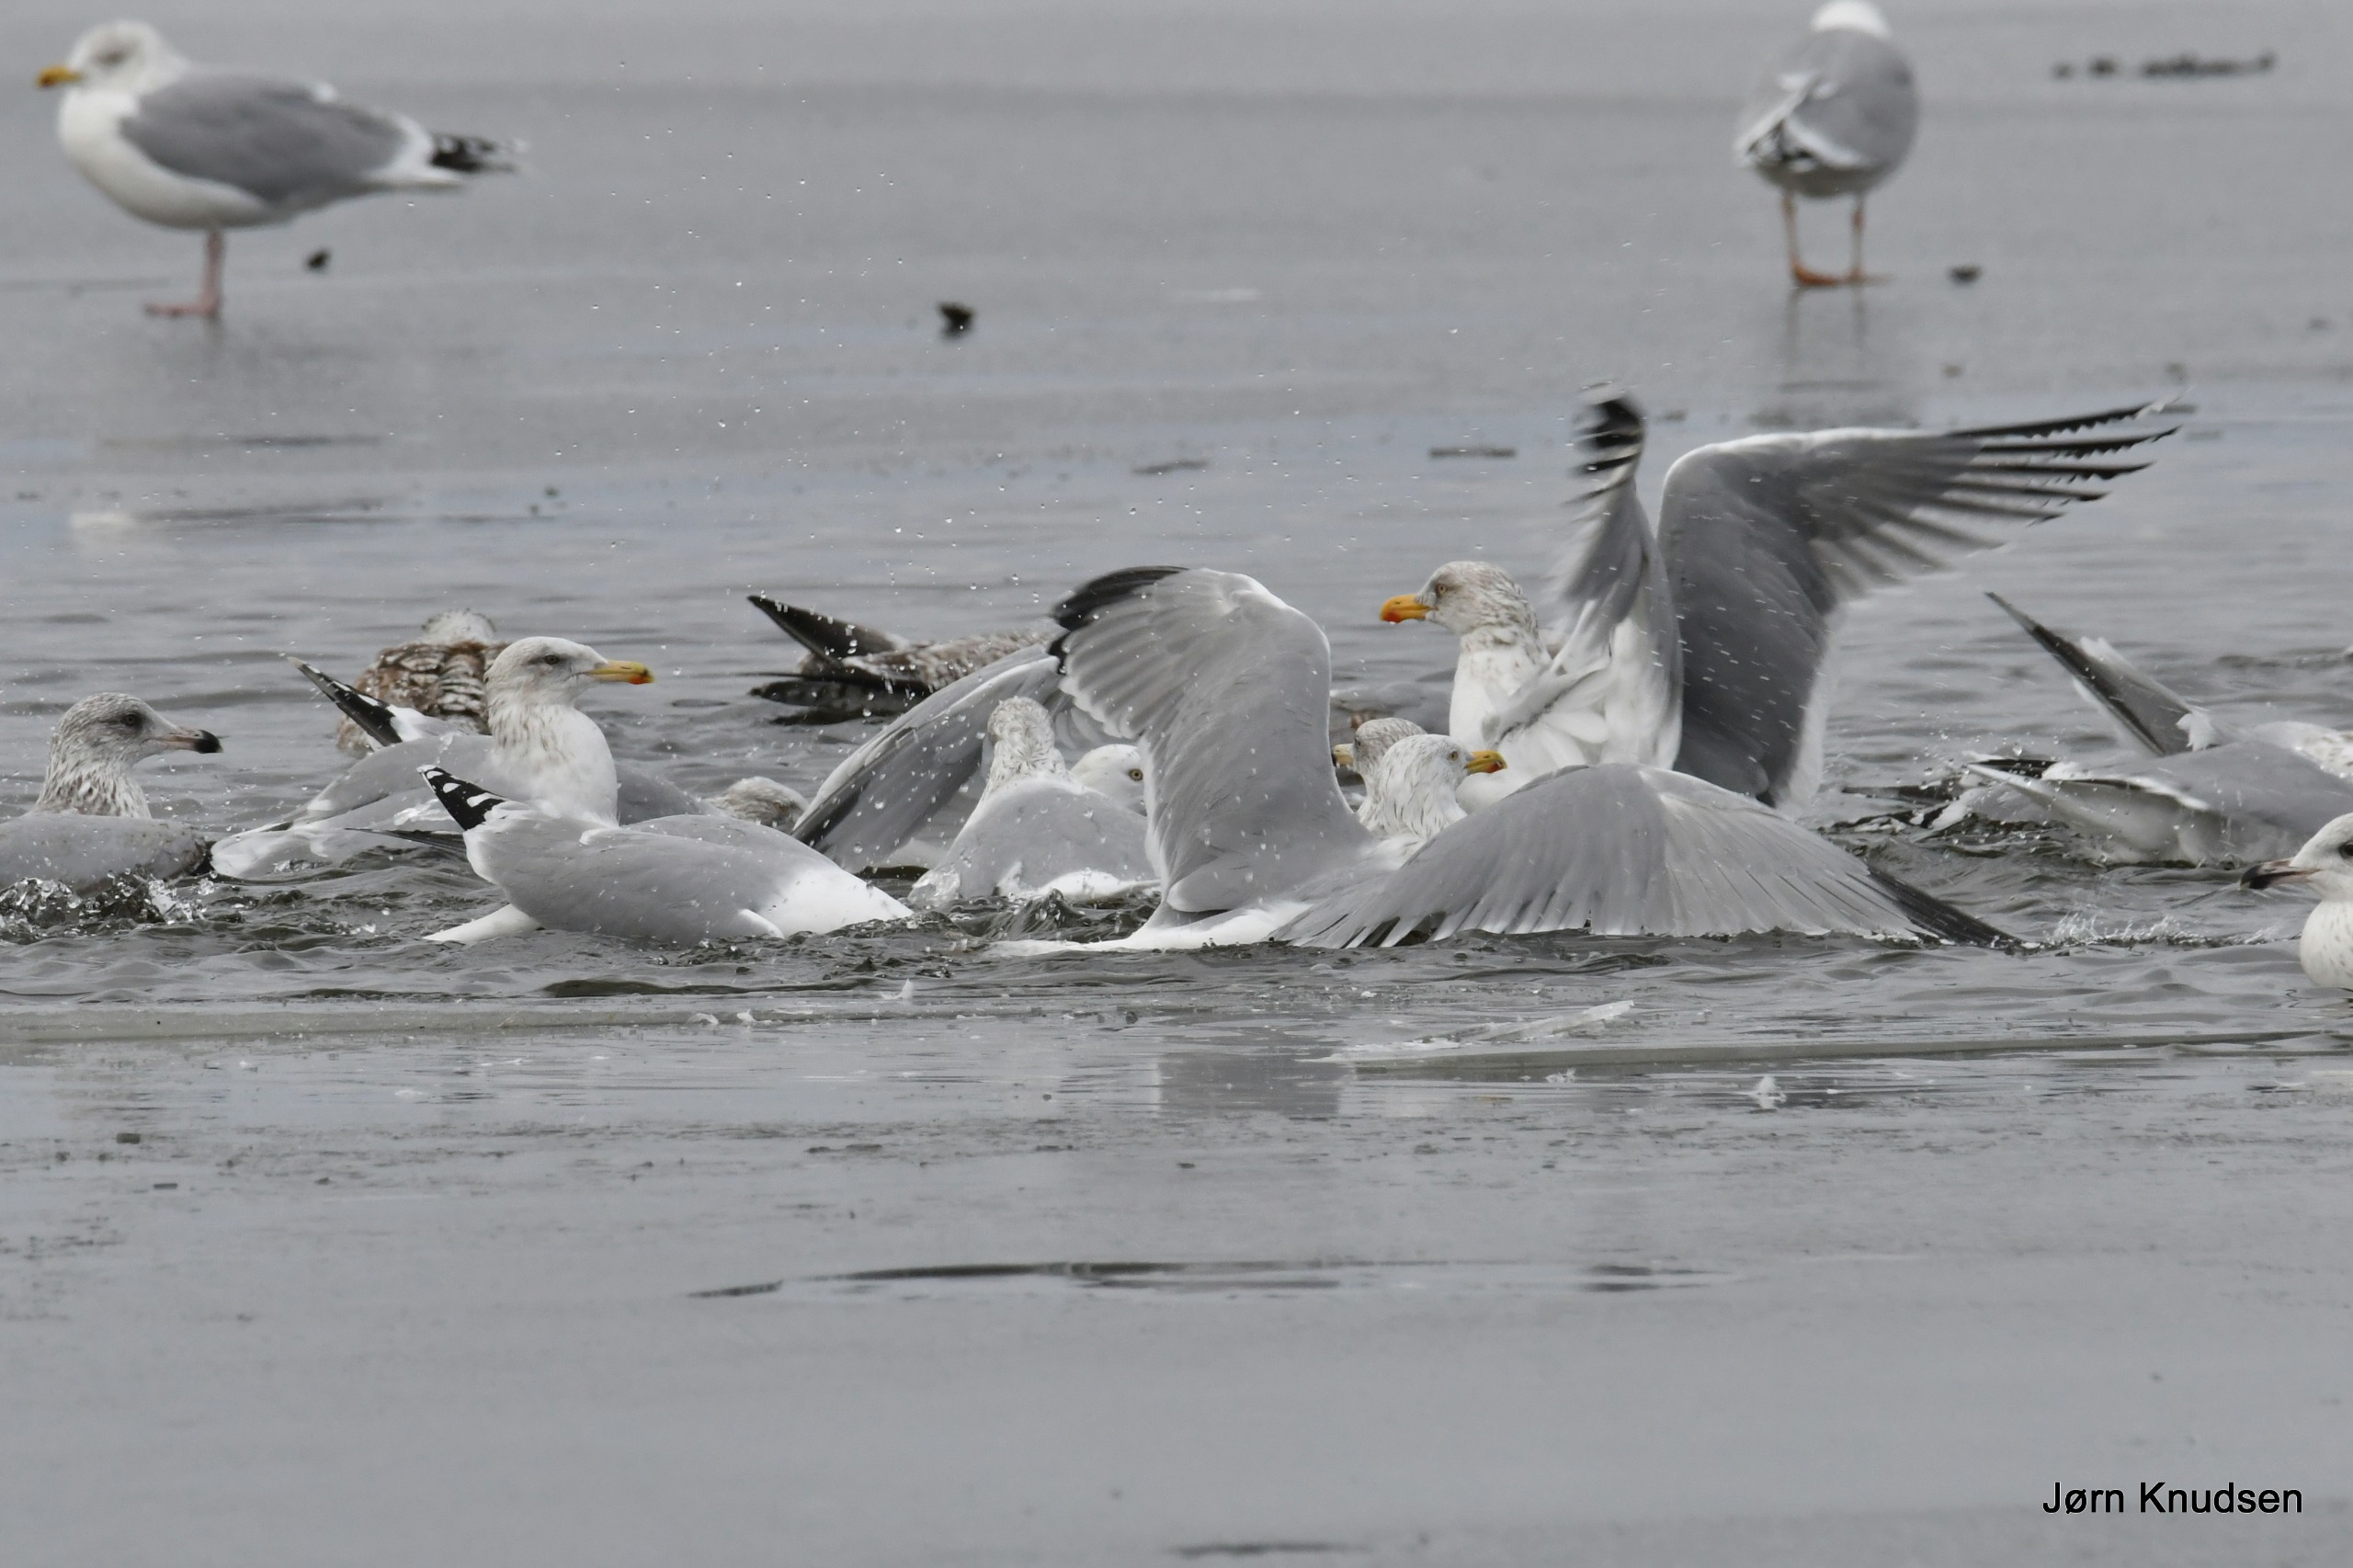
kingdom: Animalia
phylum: Chordata
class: Aves
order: Charadriiformes
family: Laridae
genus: Larus
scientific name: Larus argentatus
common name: Sølvmåge
